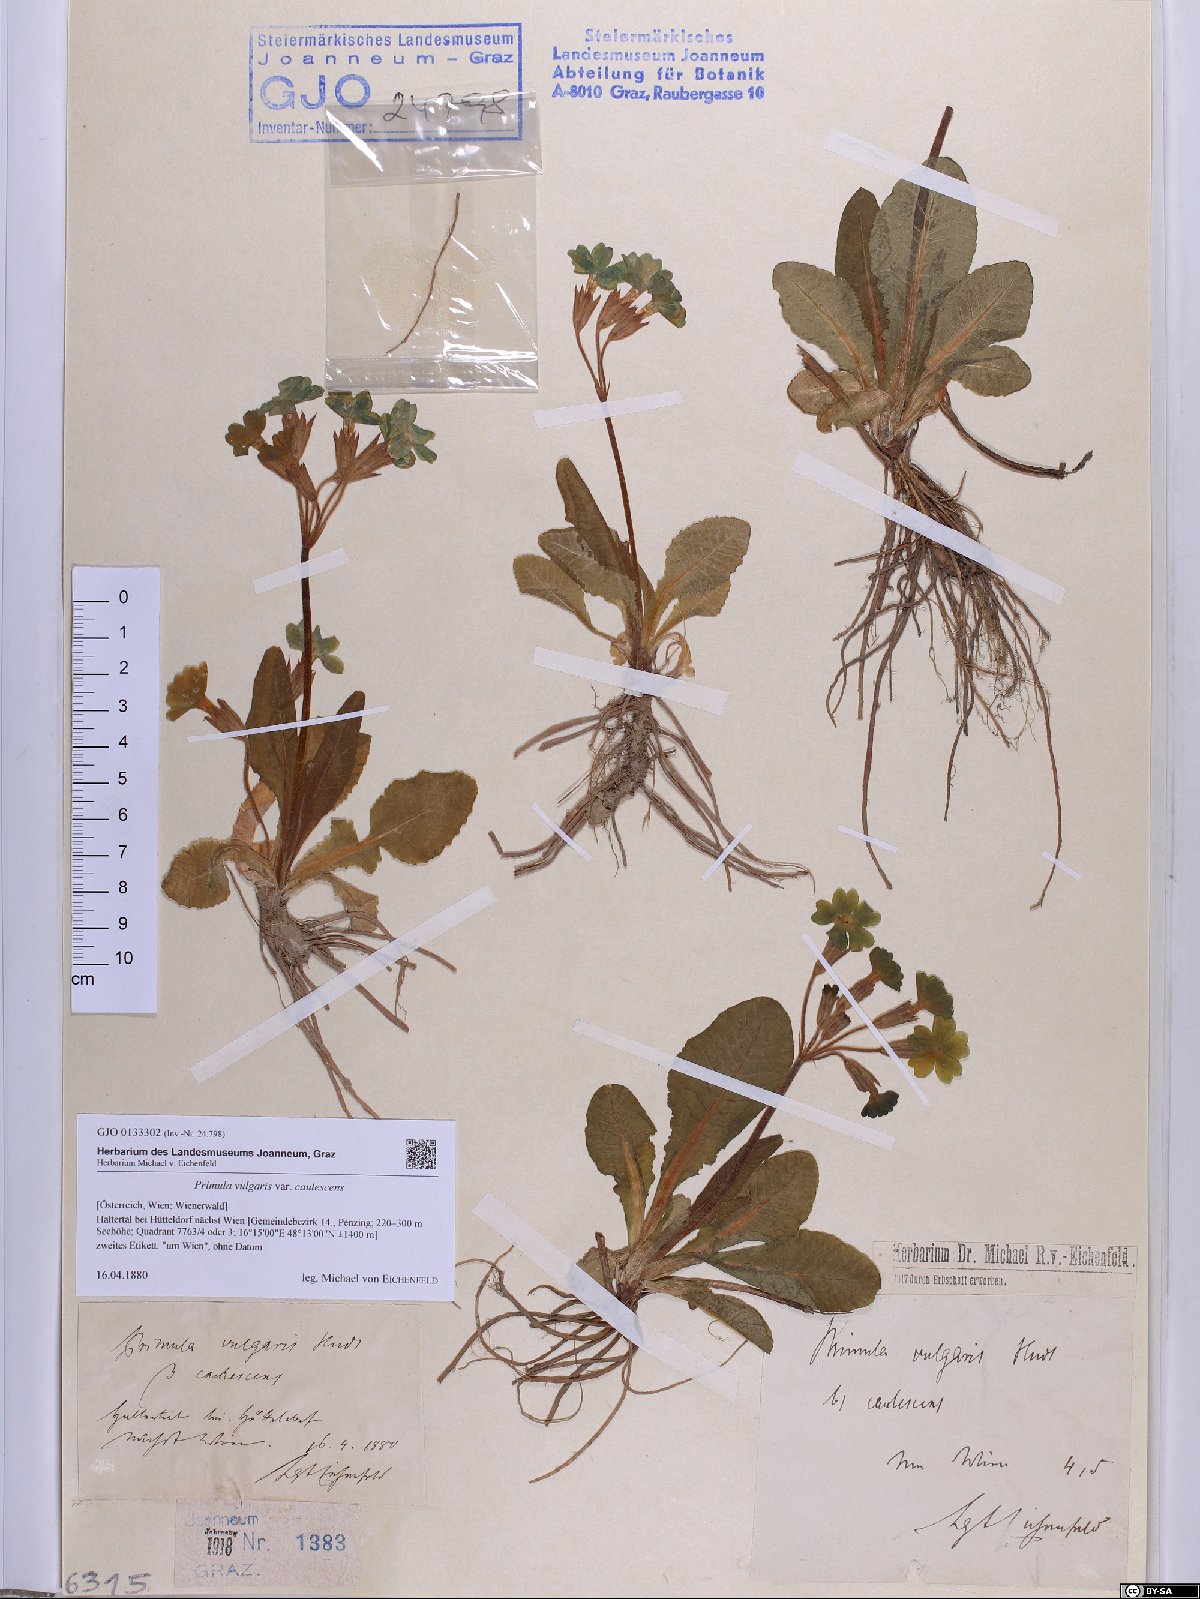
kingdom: Plantae
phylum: Tracheophyta
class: Magnoliopsida
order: Ericales
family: Primulaceae
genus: Primula
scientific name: Primula vulgaris
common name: Primrose
